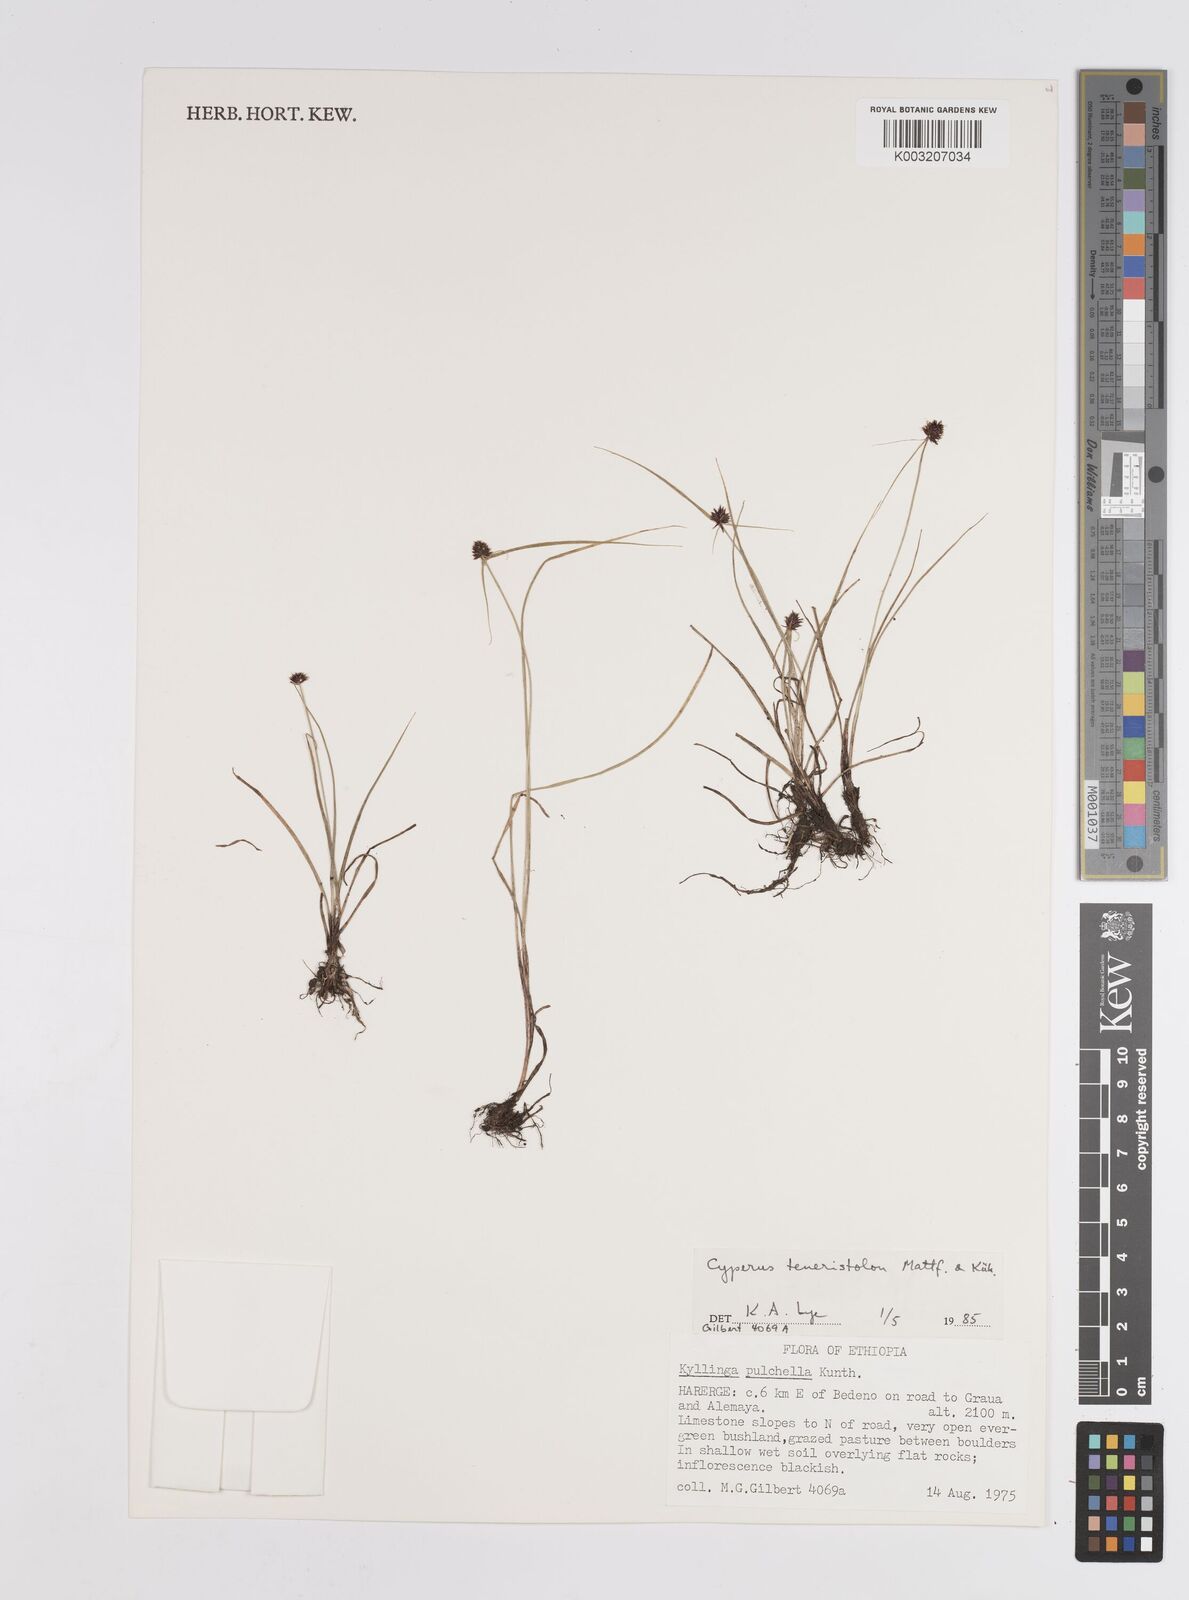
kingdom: Plantae
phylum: Tracheophyta
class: Liliopsida
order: Poales
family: Cyperaceae
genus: Cyperus
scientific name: Cyperus
